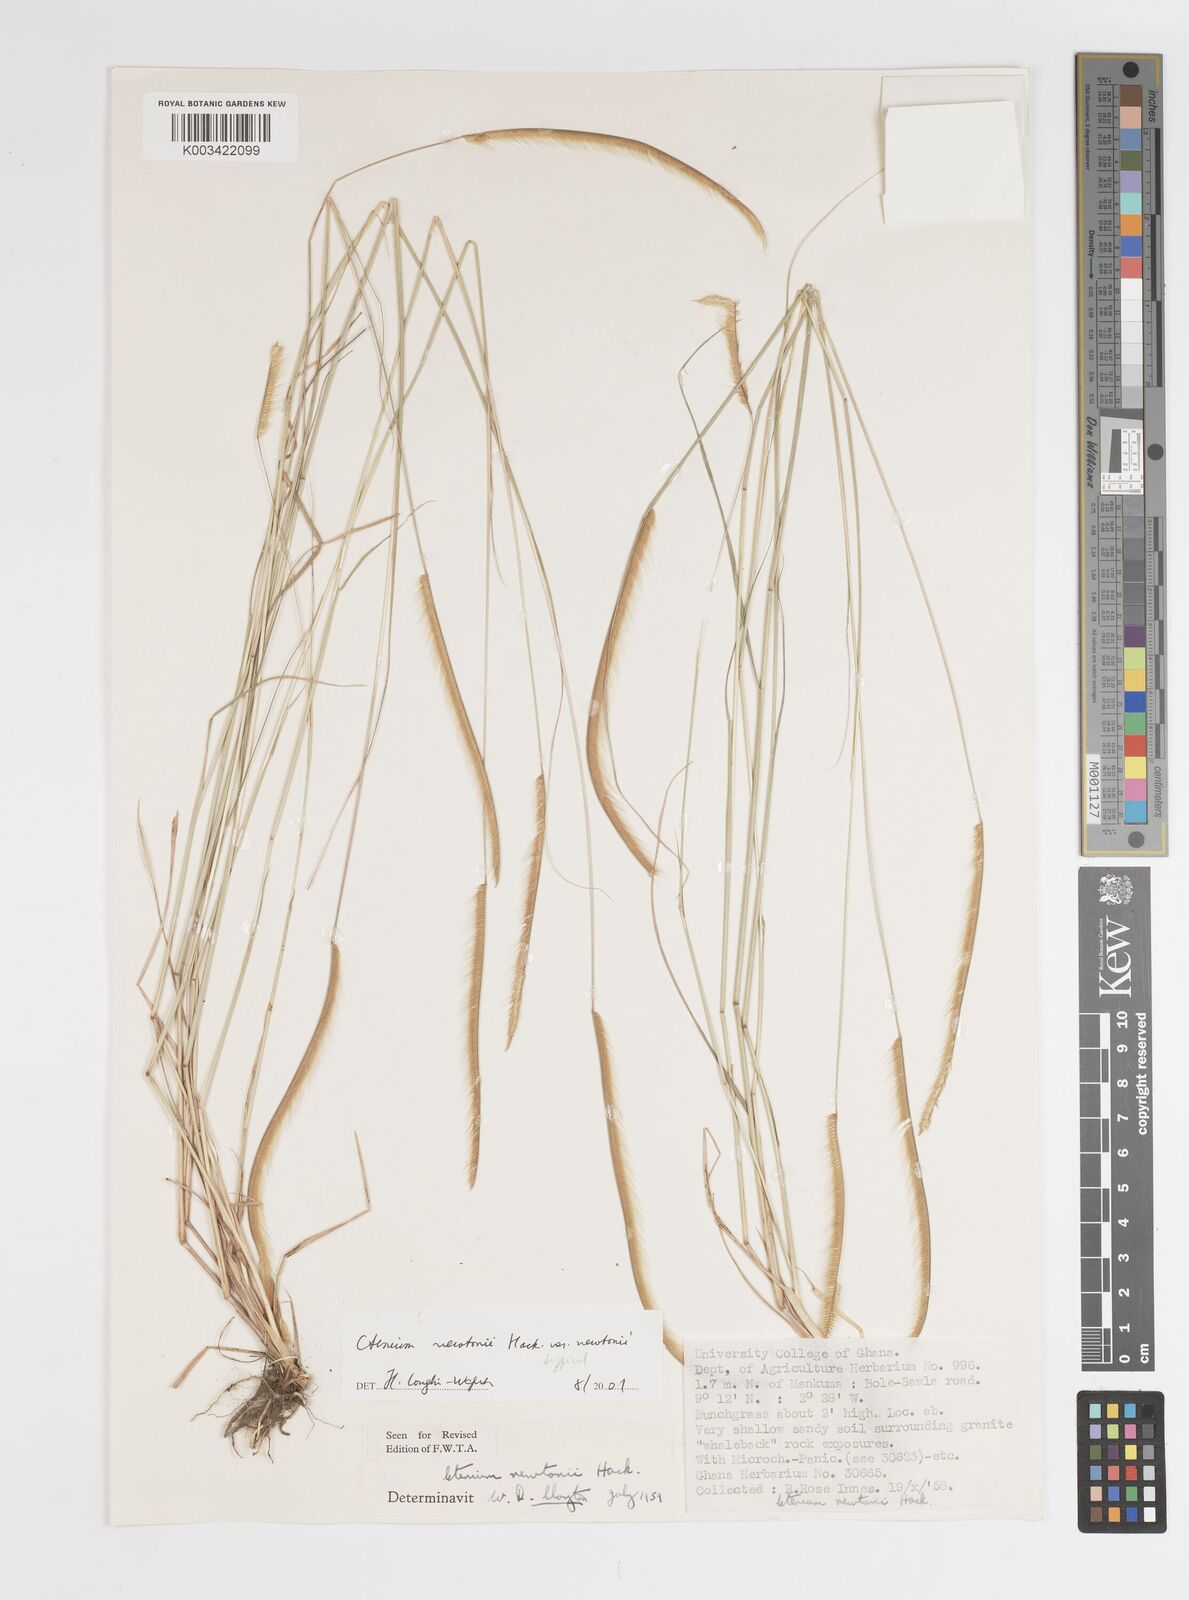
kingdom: Plantae
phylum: Tracheophyta
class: Liliopsida
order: Poales
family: Poaceae
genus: Ctenium
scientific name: Ctenium newtonii
